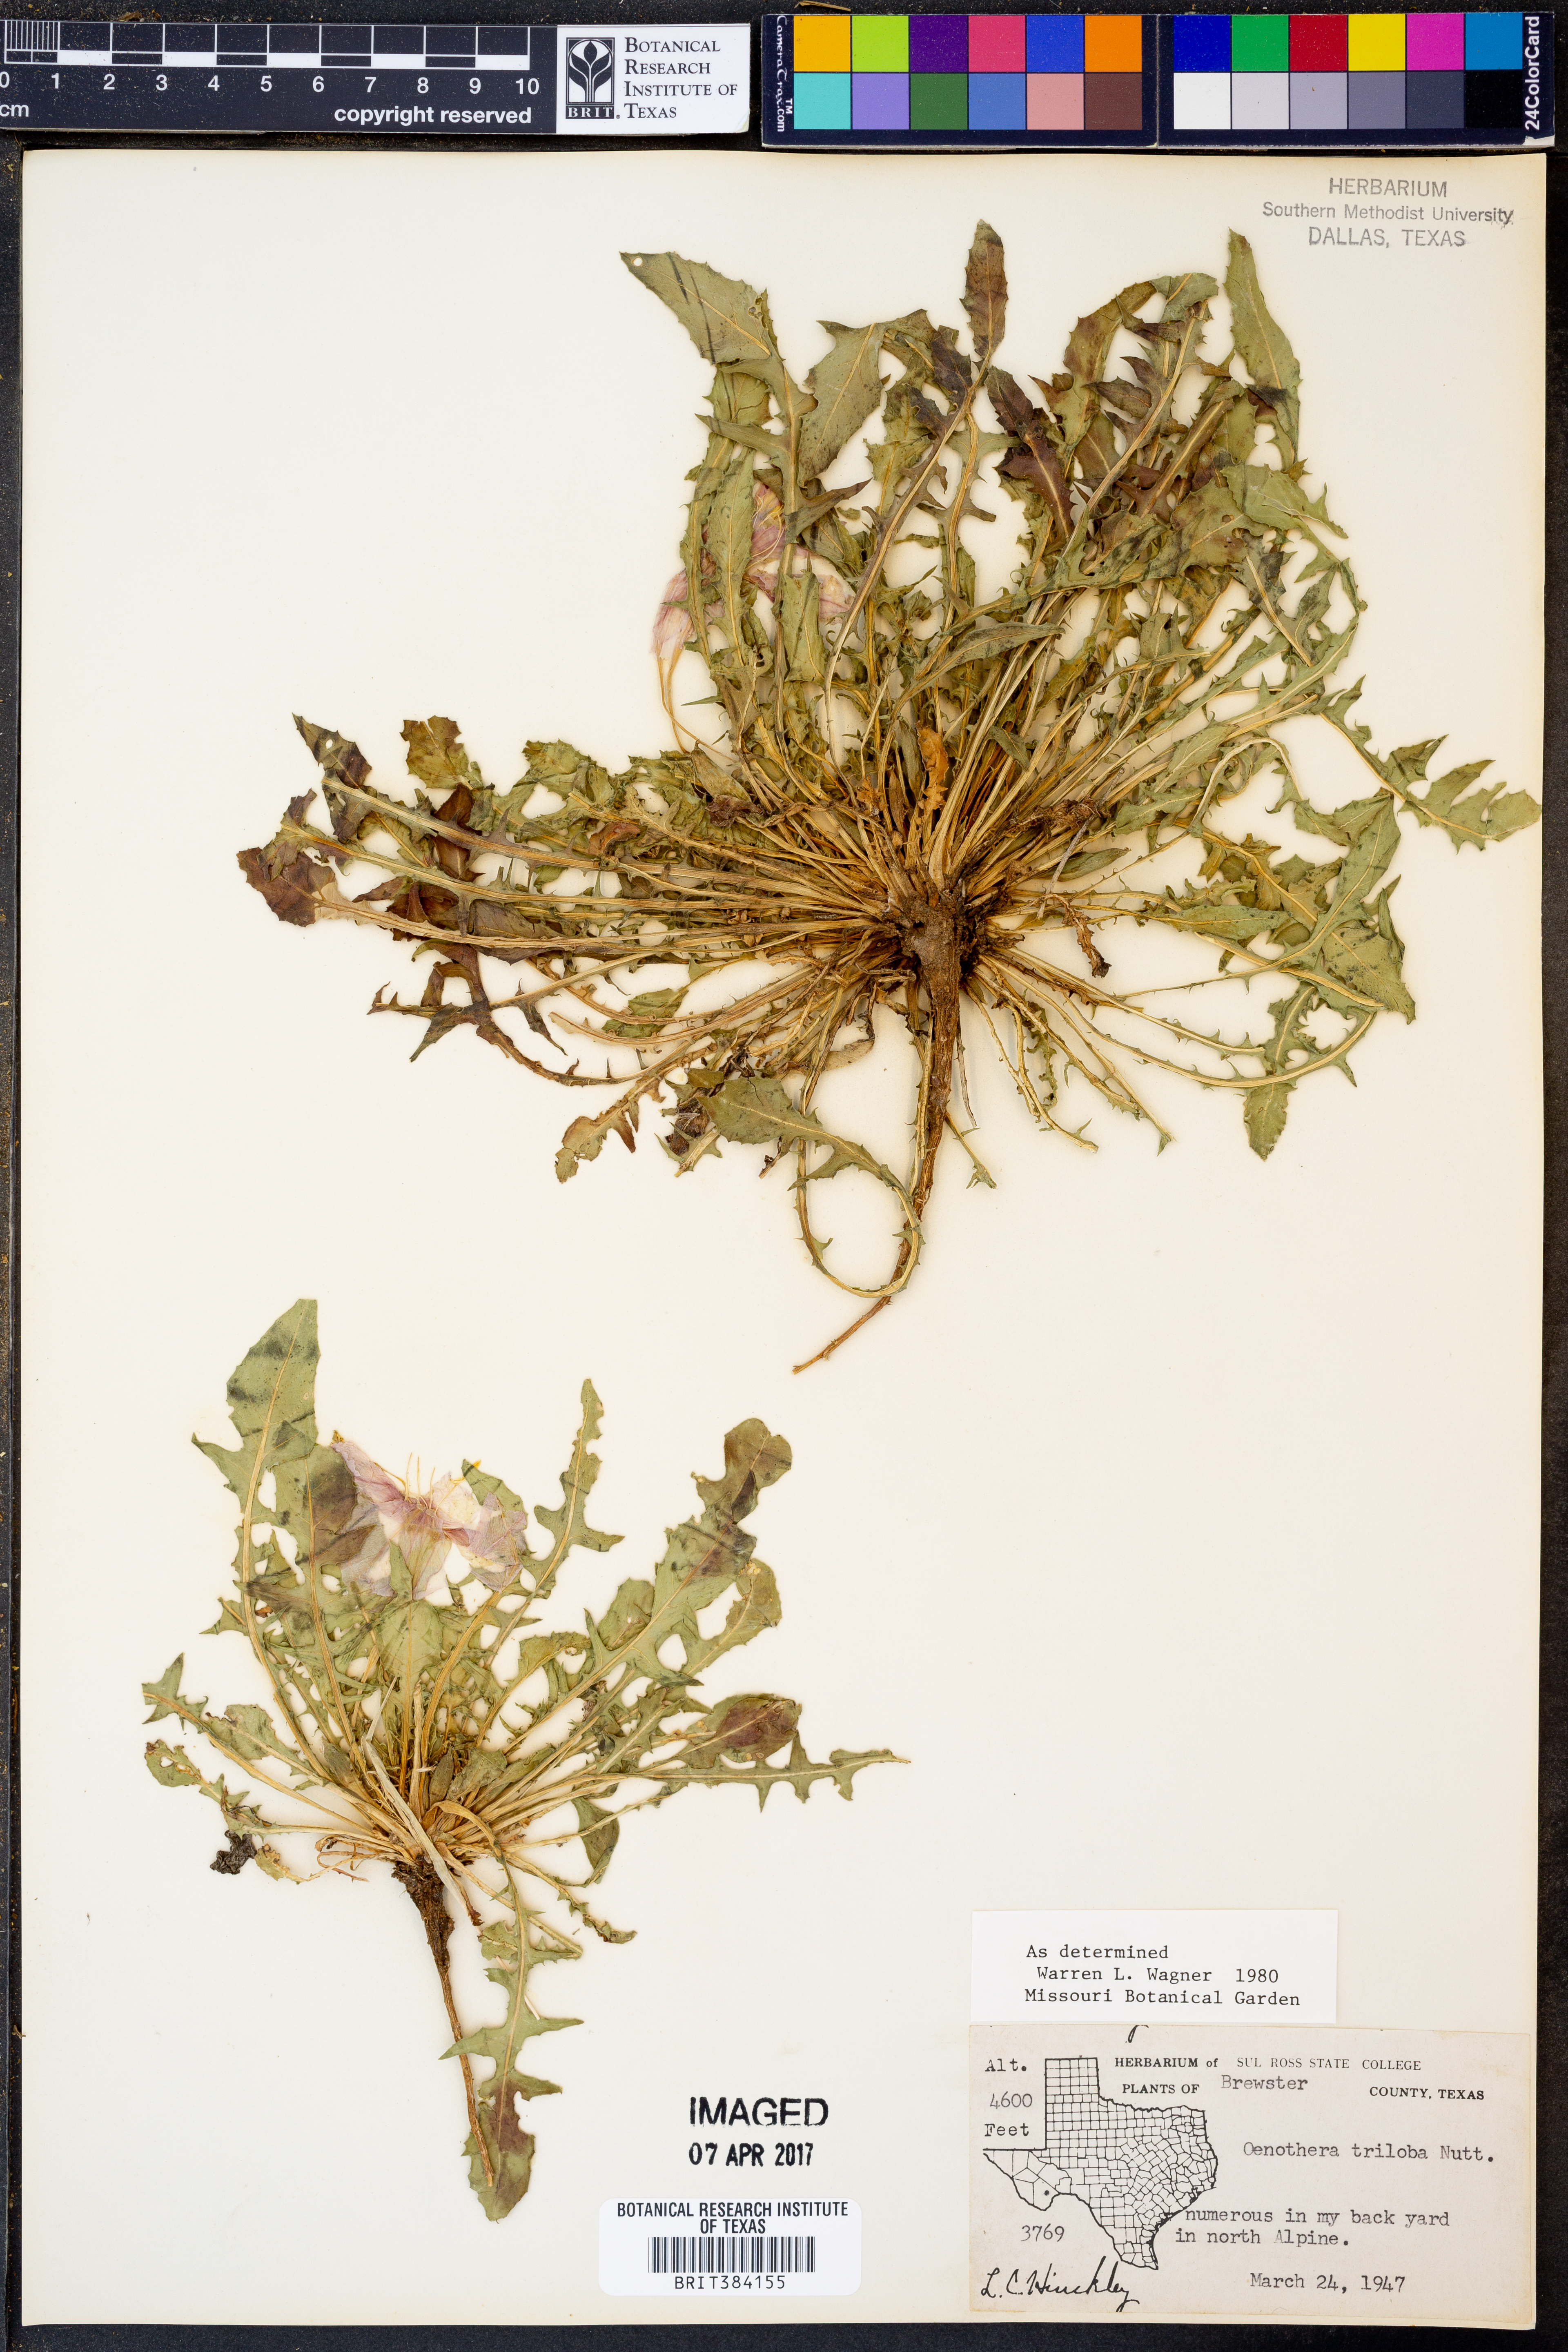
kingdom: Plantae
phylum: Tracheophyta
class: Magnoliopsida
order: Myrtales
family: Onagraceae
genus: Oenothera
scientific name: Oenothera triloba
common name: Sessile evening-primrose
